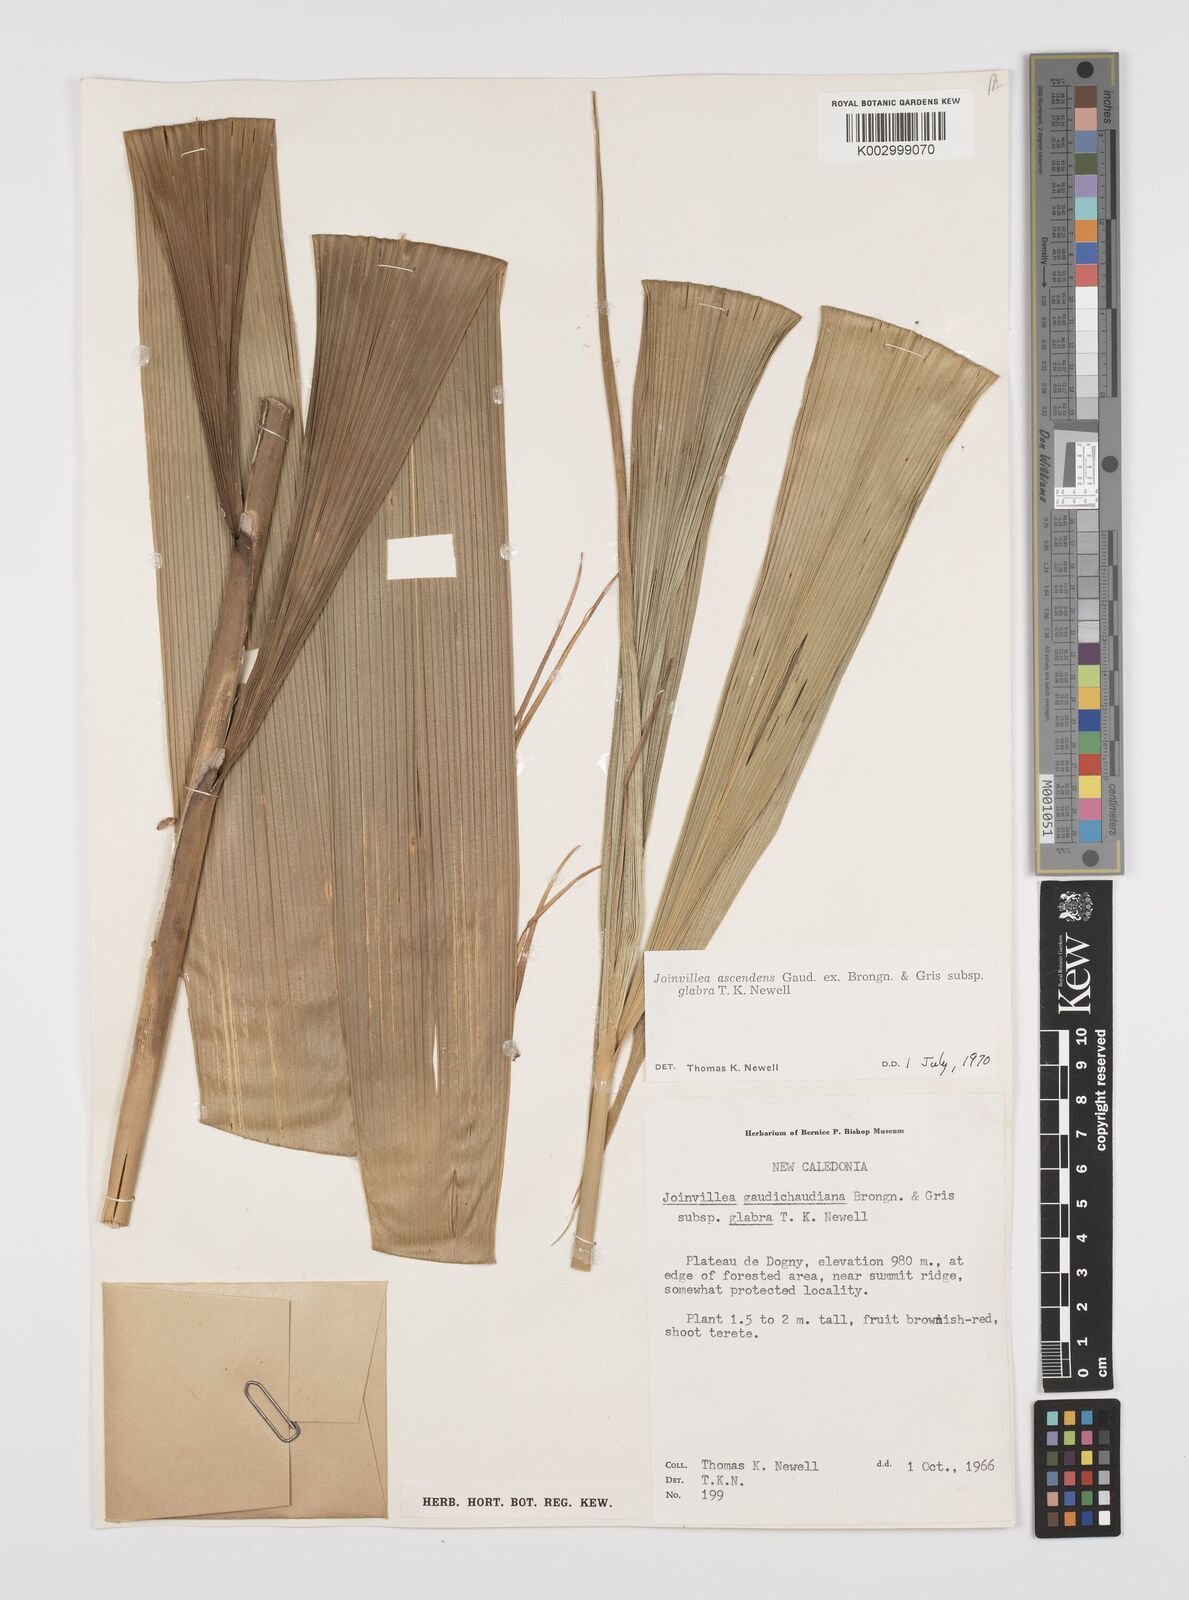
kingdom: Plantae
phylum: Tracheophyta
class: Liliopsida
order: Poales
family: Joinvilleaceae
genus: Joinvillea
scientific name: Joinvillea ascendens
